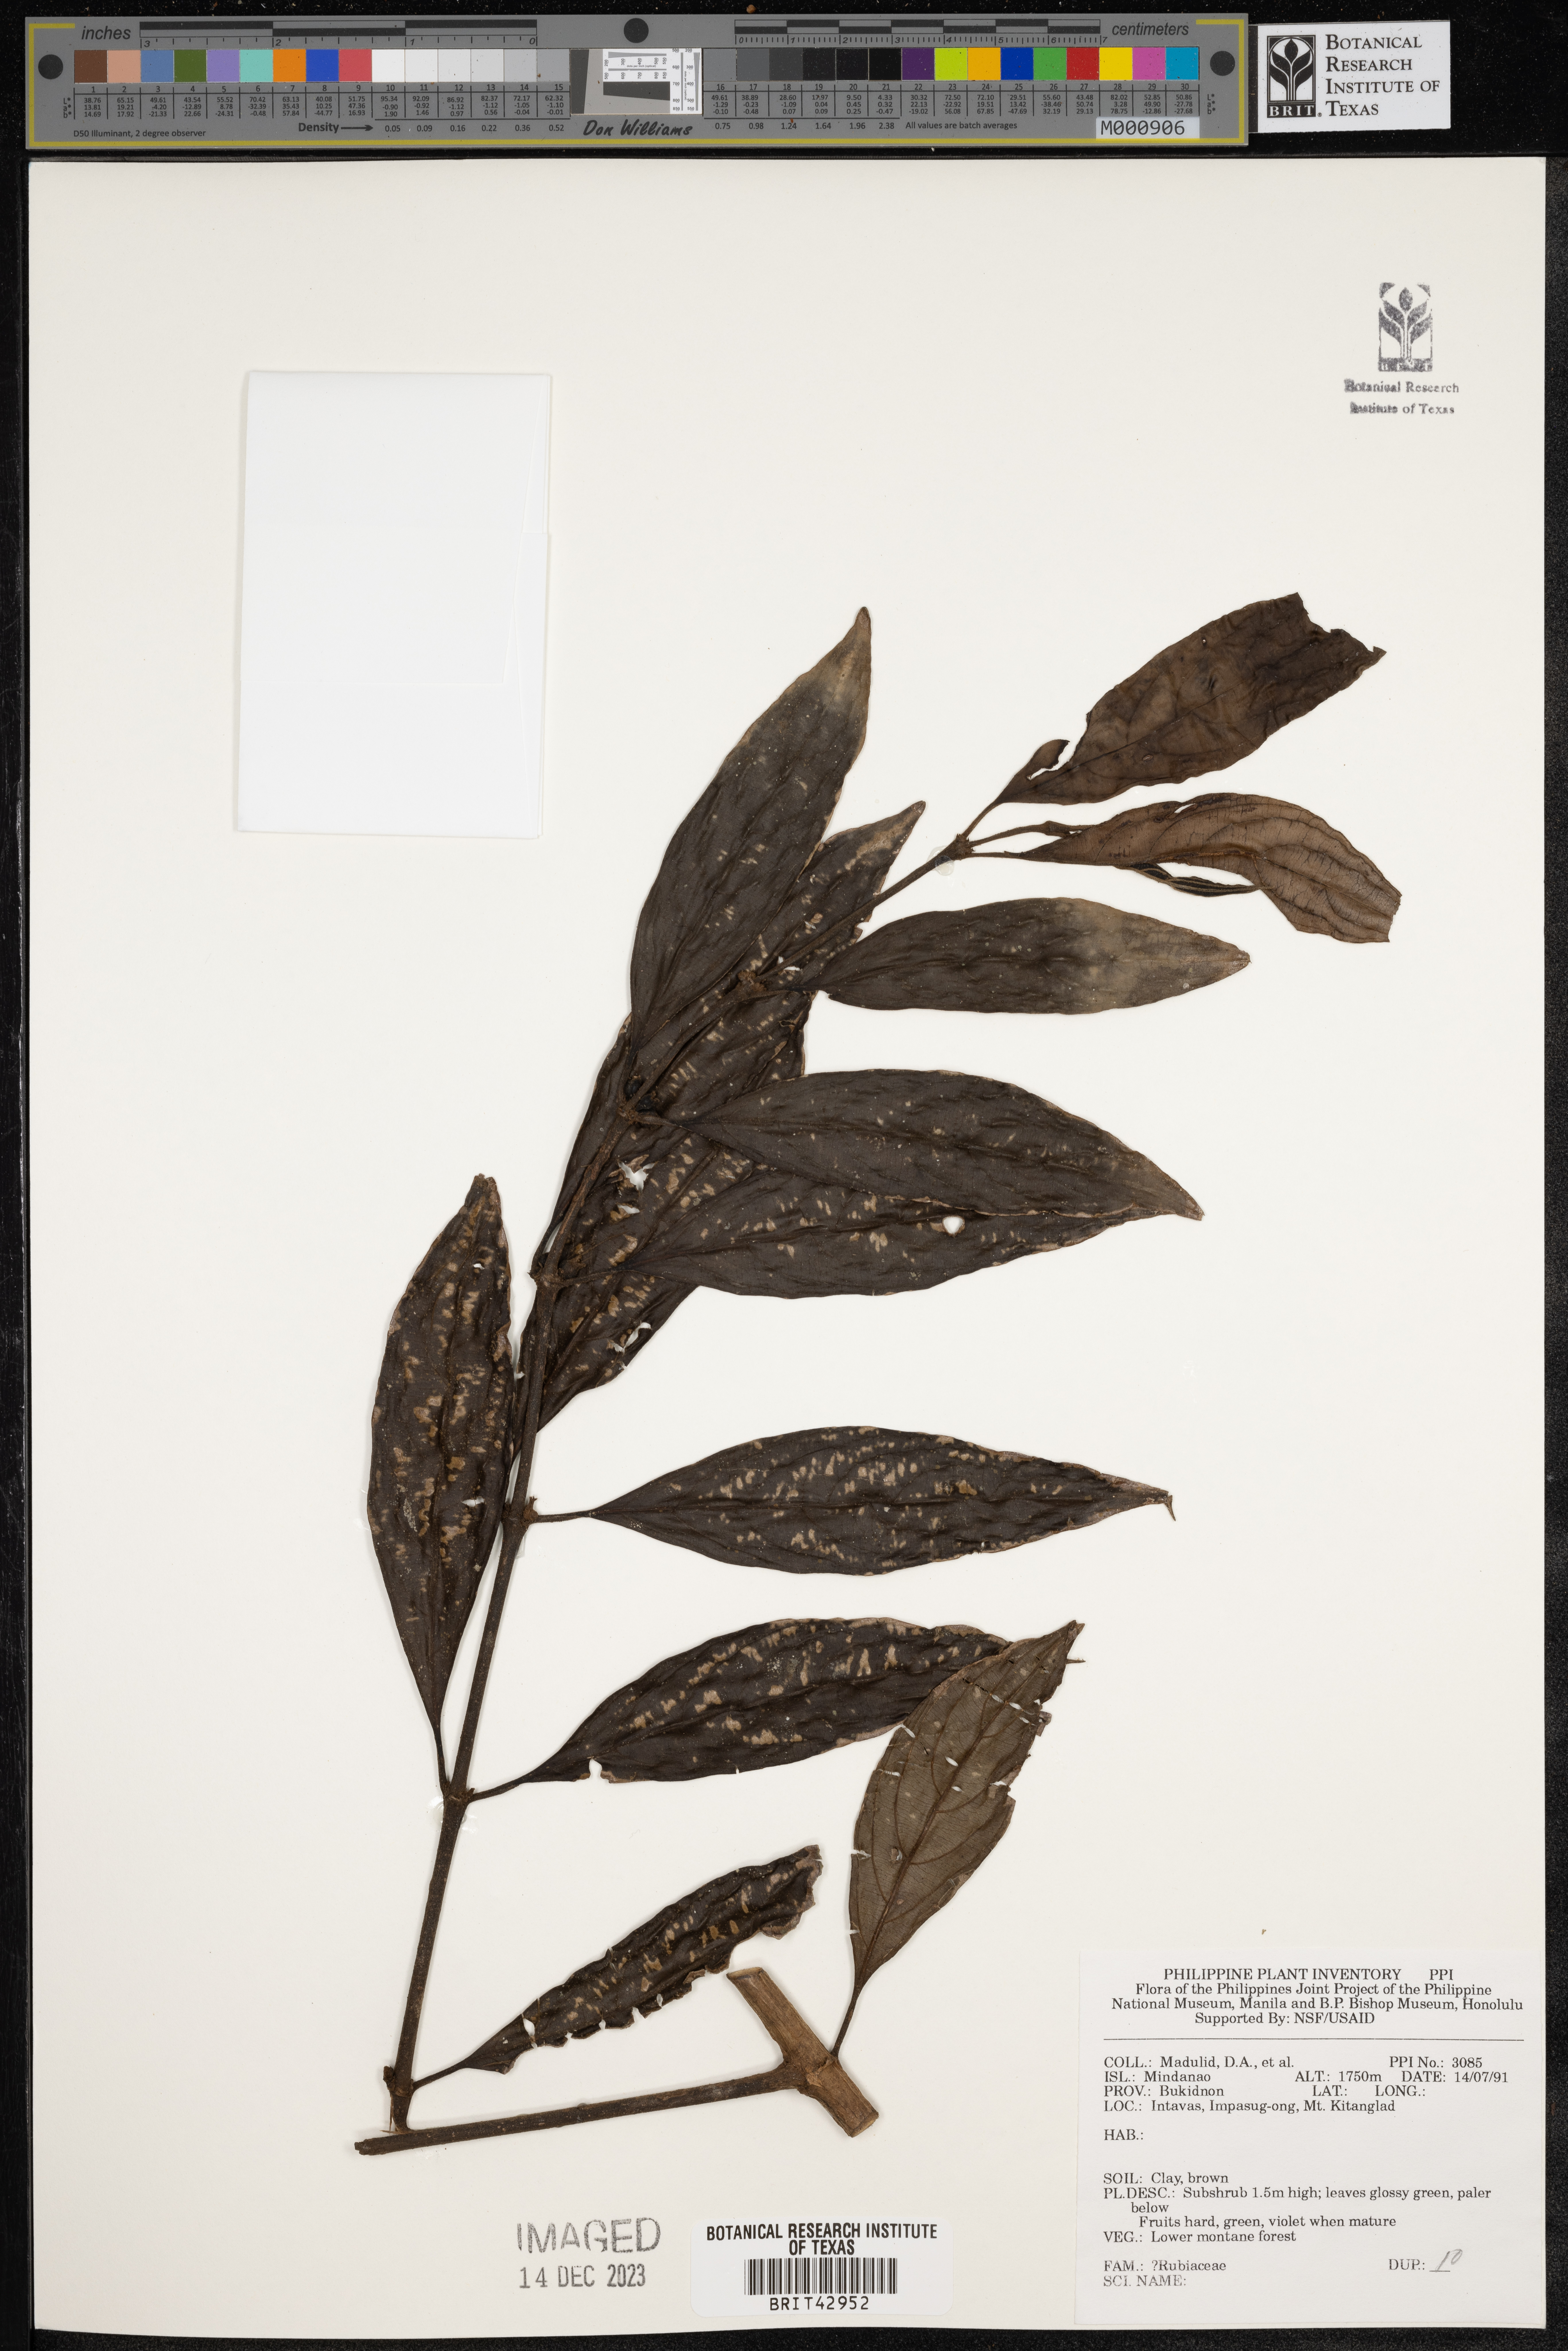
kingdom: Plantae
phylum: Tracheophyta
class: Magnoliopsida
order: Gentianales
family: Rubiaceae
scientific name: Rubiaceae
